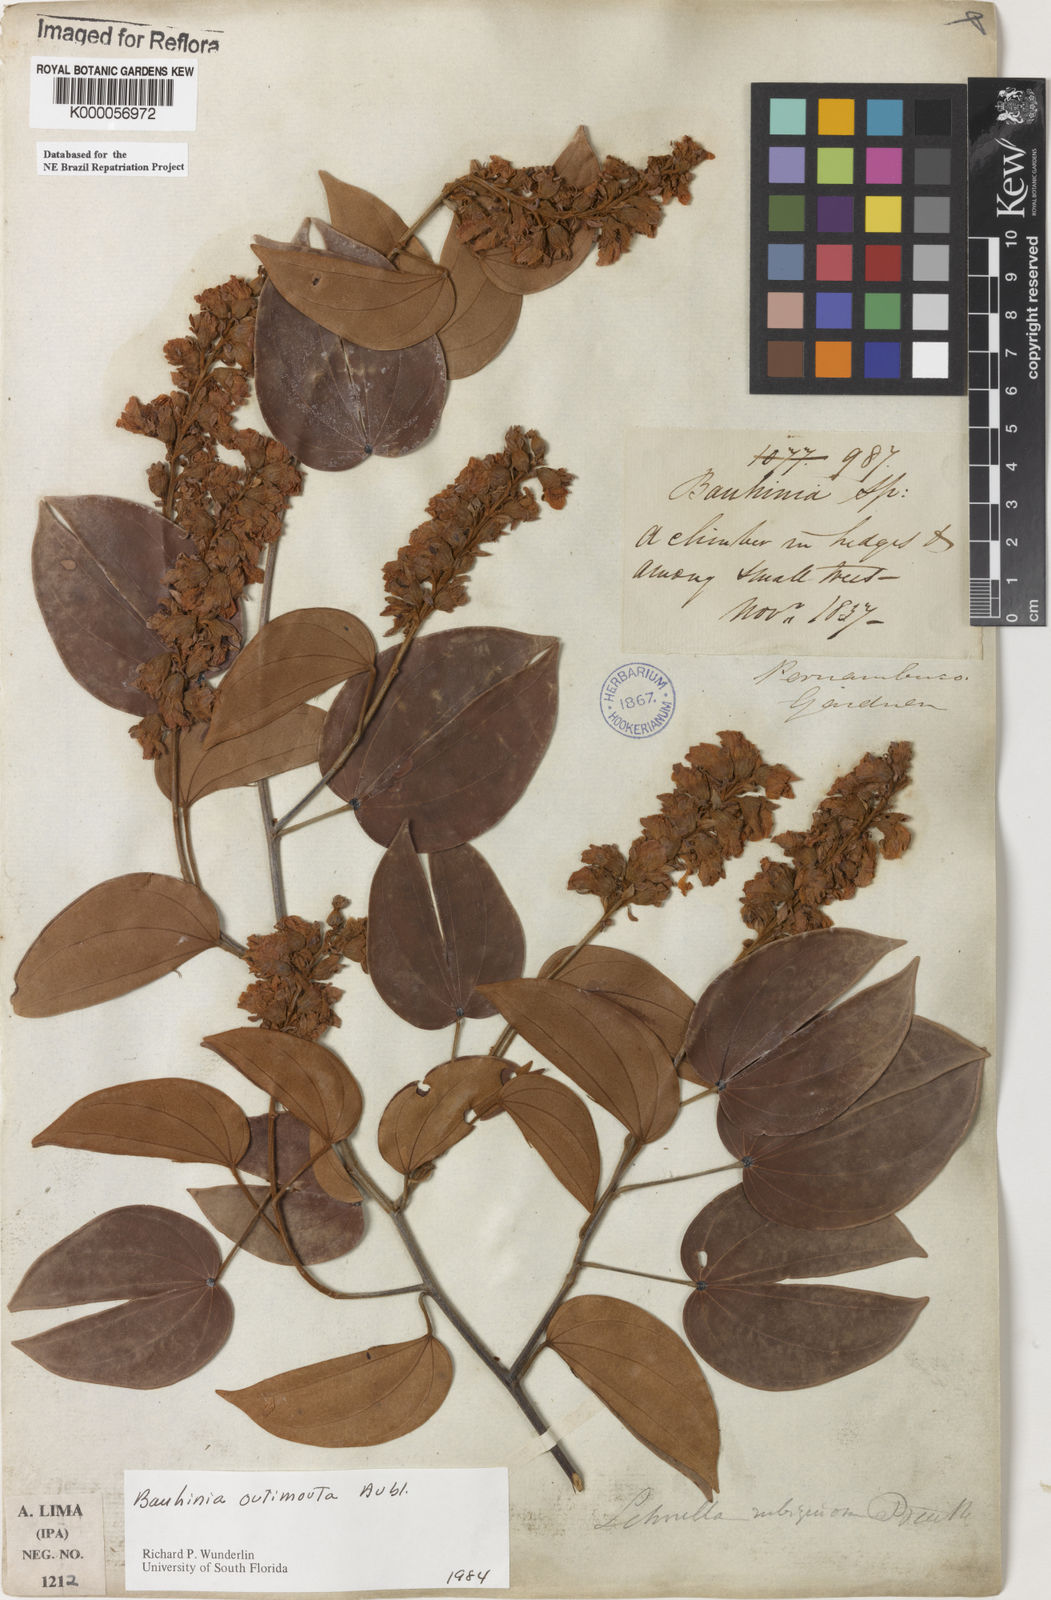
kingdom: Plantae
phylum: Tracheophyta
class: Magnoliopsida
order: Fabales
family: Fabaceae
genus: Schnella
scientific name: Schnella outimouta
